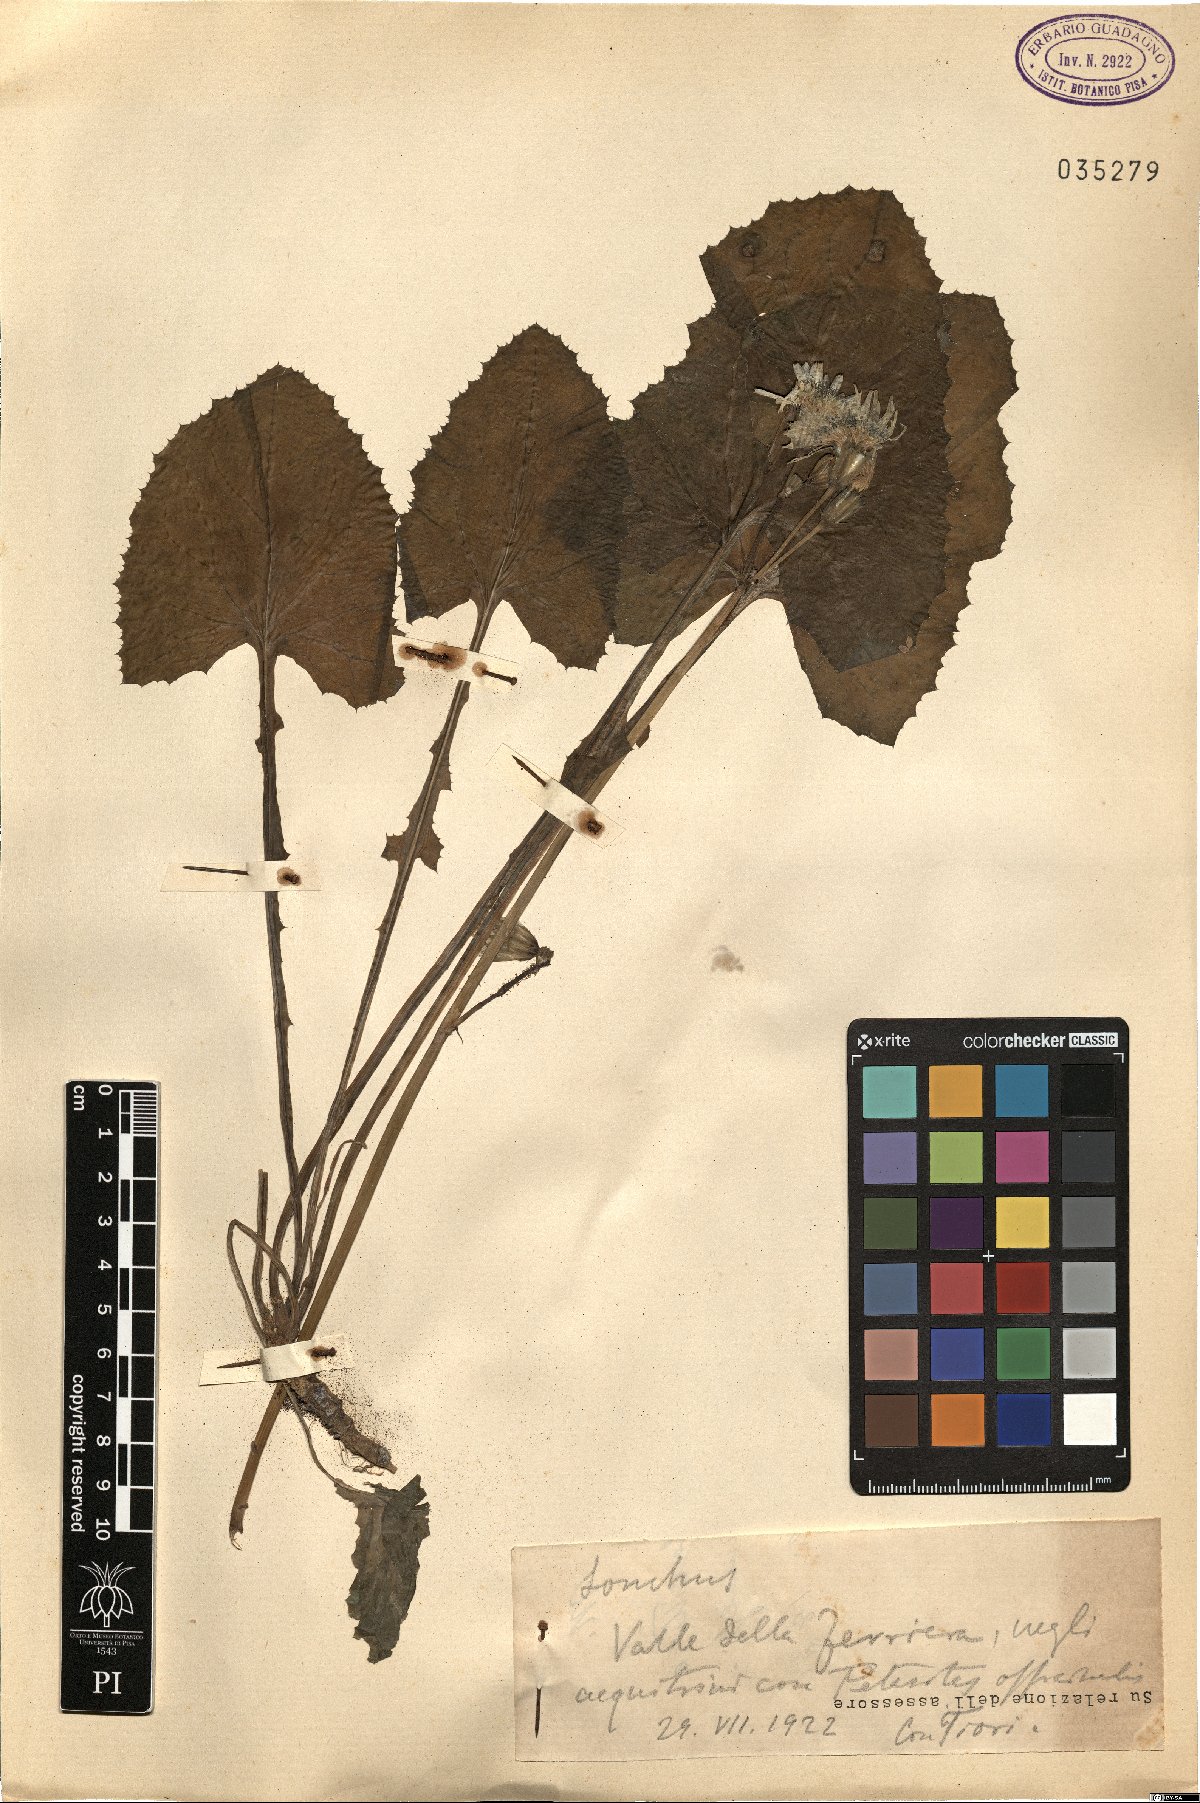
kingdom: Plantae
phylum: Tracheophyta
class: Magnoliopsida
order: Asterales
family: Asteraceae
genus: Sonchus
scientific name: Sonchus
